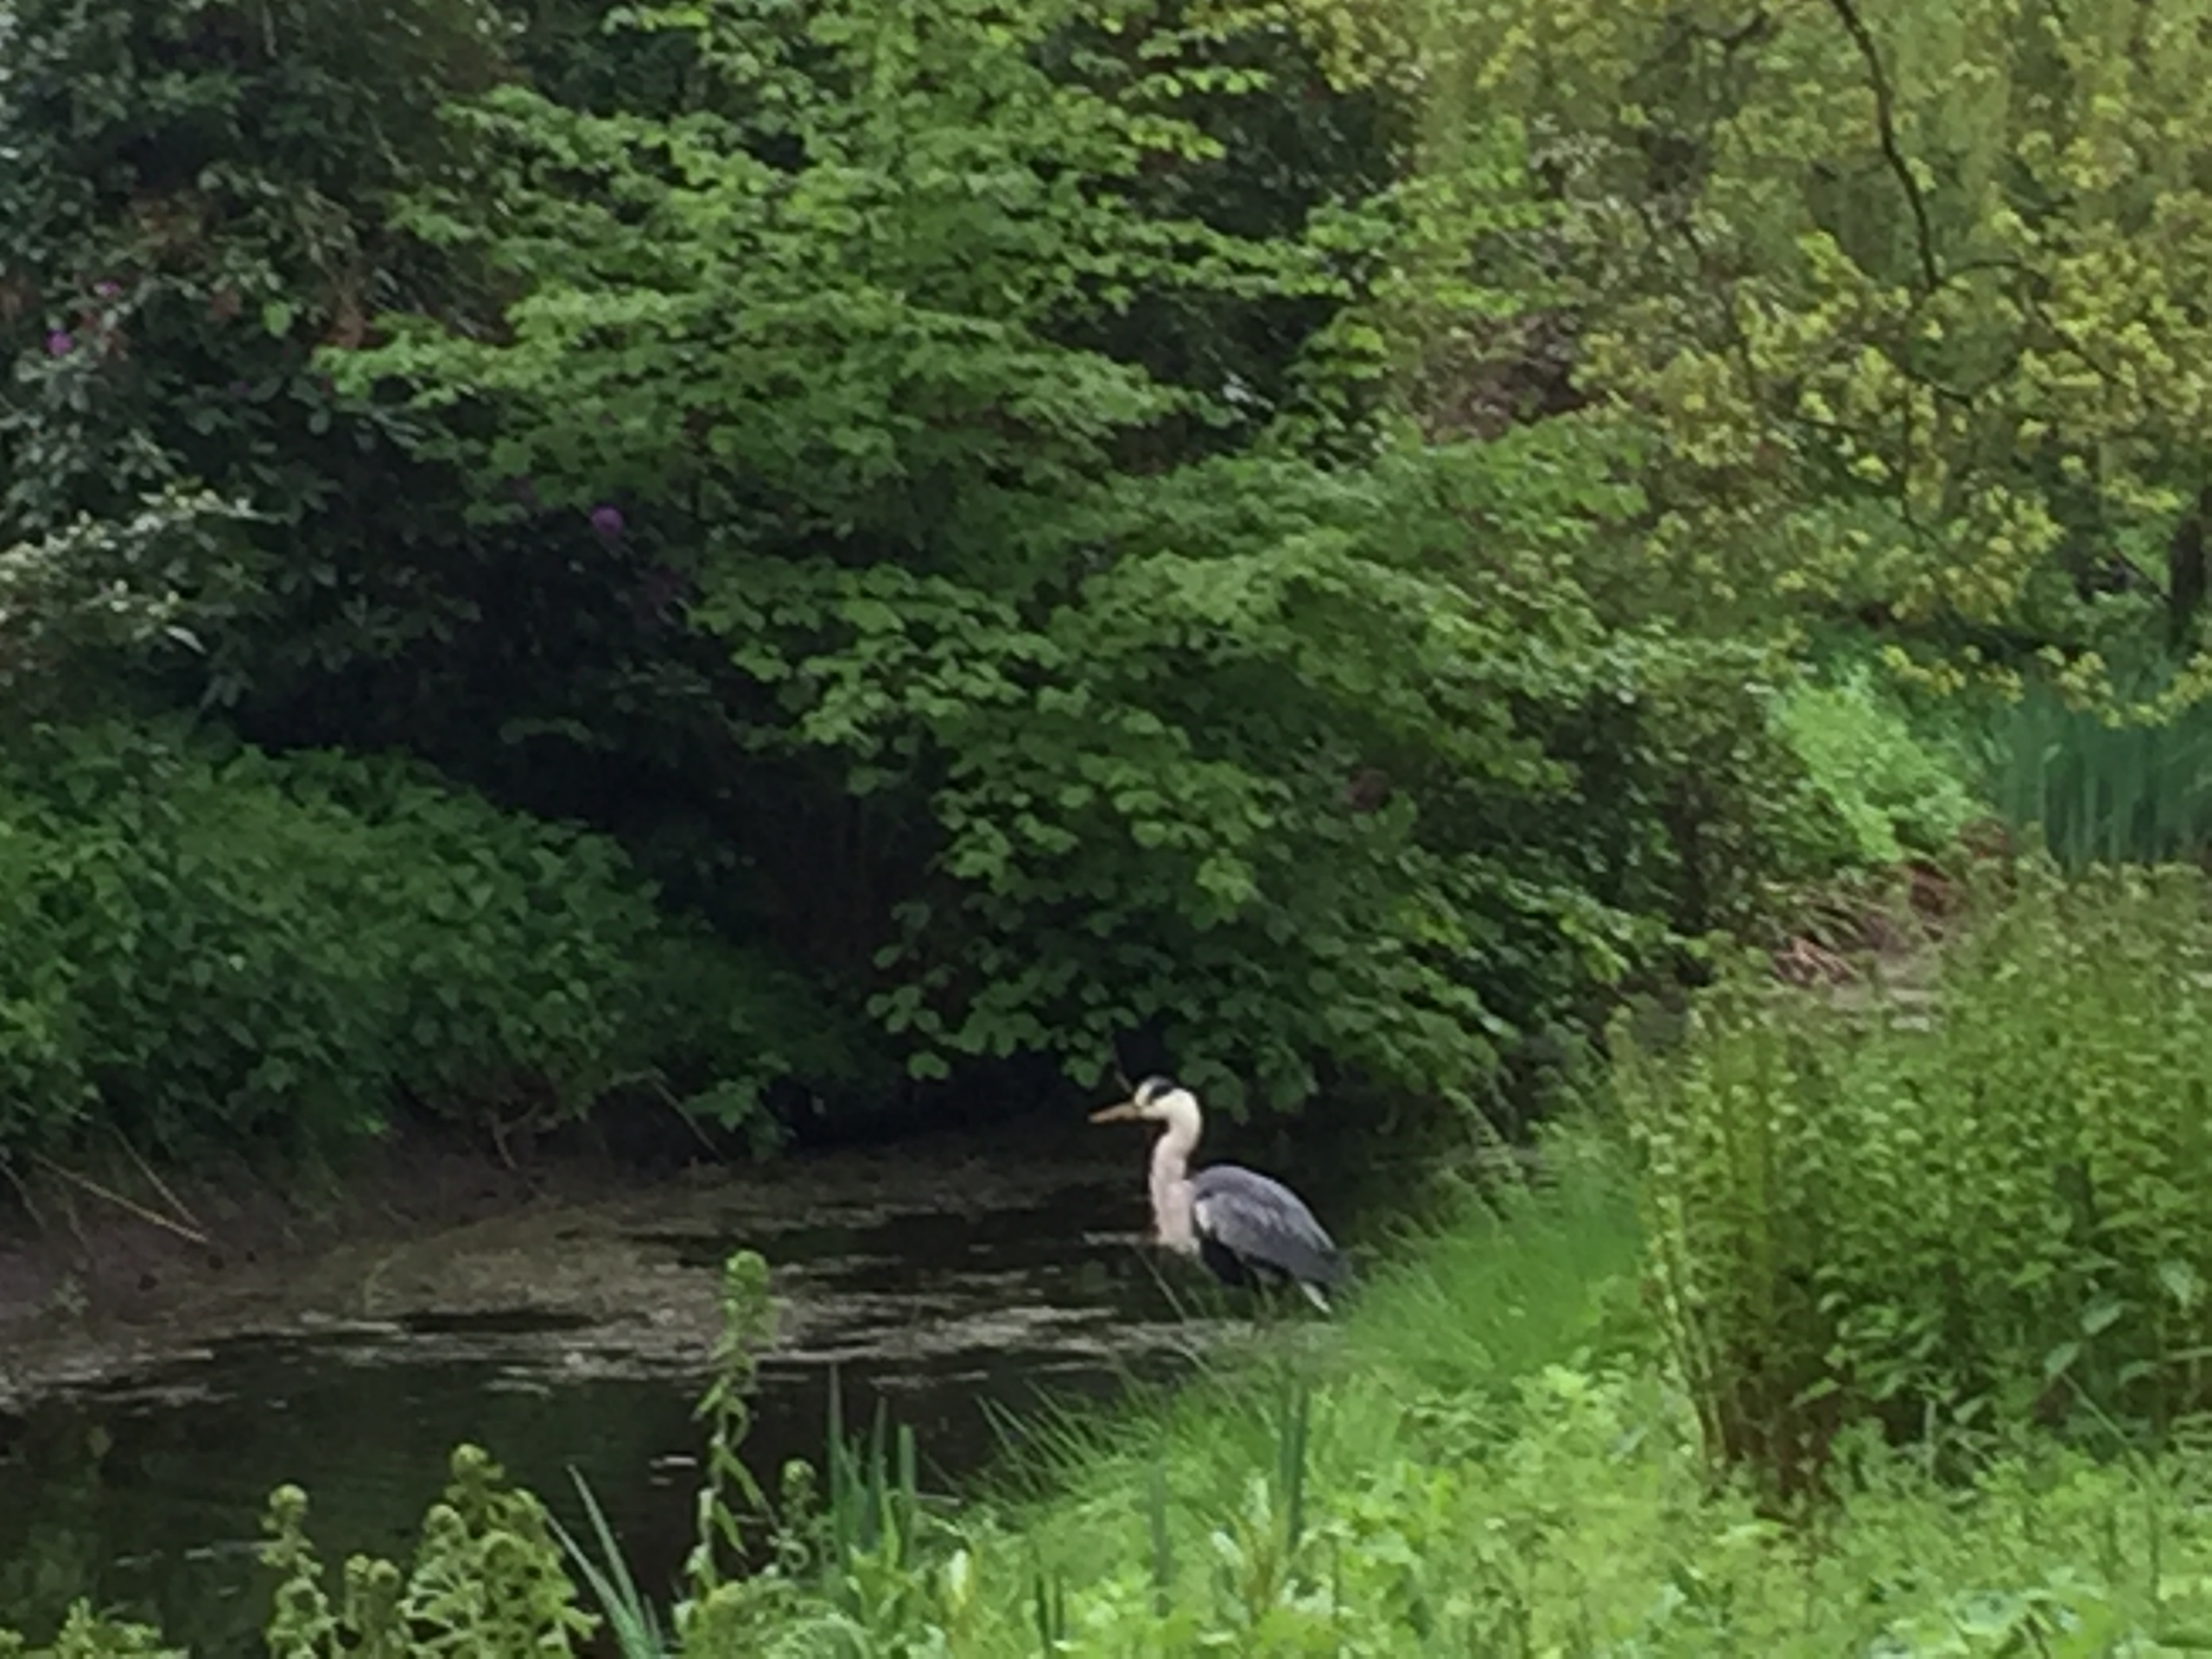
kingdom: Animalia
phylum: Chordata
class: Aves
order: Pelecaniformes
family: Ardeidae
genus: Ardea
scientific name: Ardea cinerea
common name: Fiskehejre
